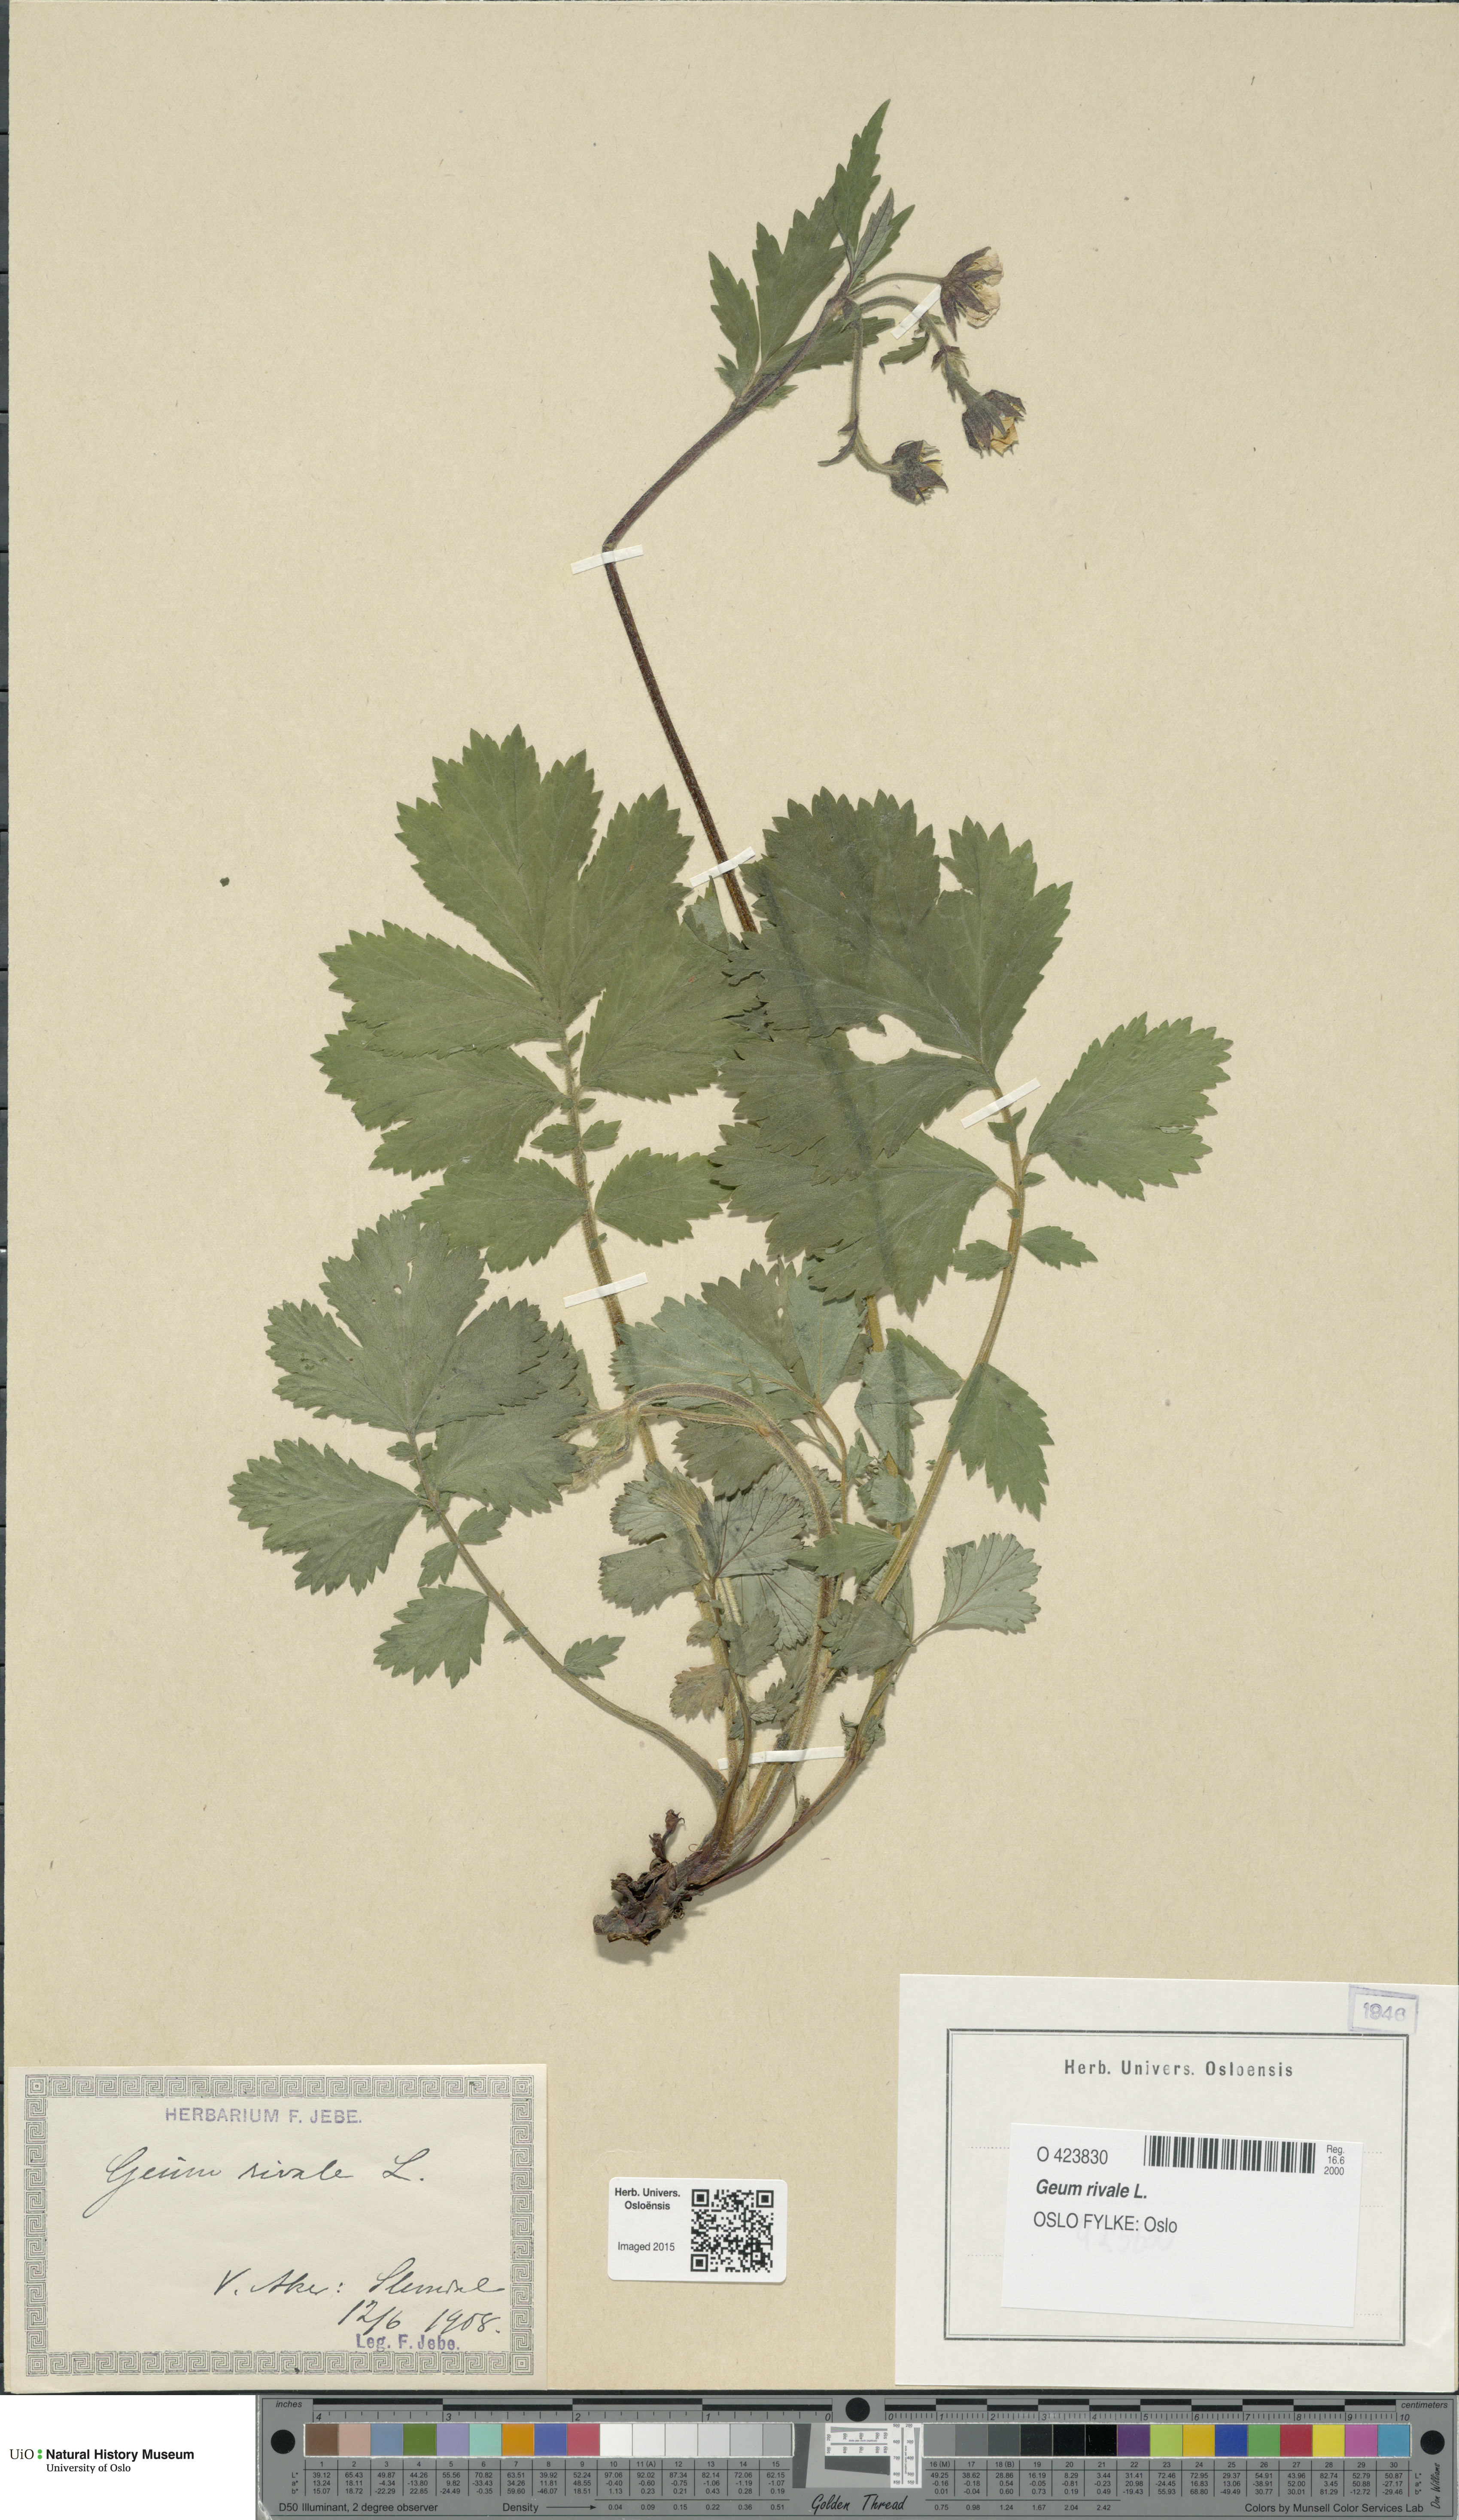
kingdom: Plantae
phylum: Tracheophyta
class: Magnoliopsida
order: Rosales
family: Rosaceae
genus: Geum
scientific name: Geum rivale
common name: Water avens
